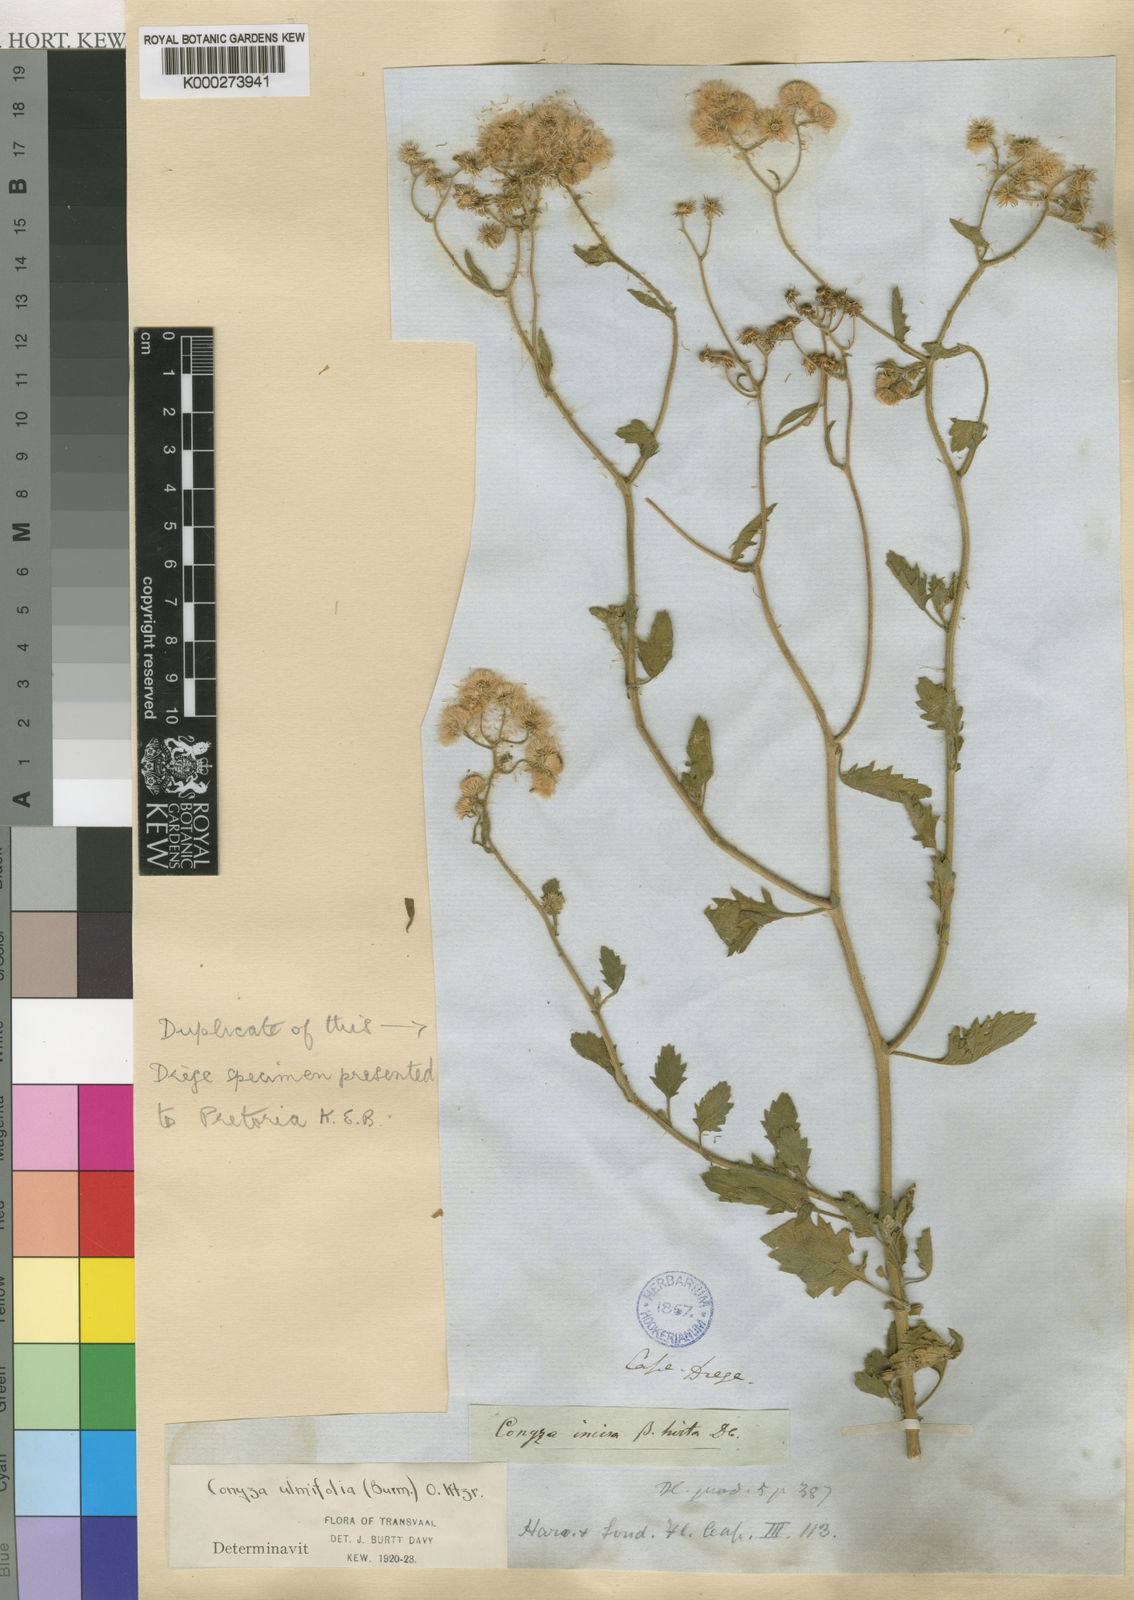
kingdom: Plantae
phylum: Tracheophyta
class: Magnoliopsida
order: Asterales
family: Asteraceae
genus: Eschenbachia
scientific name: Eschenbachia ulmifolia
